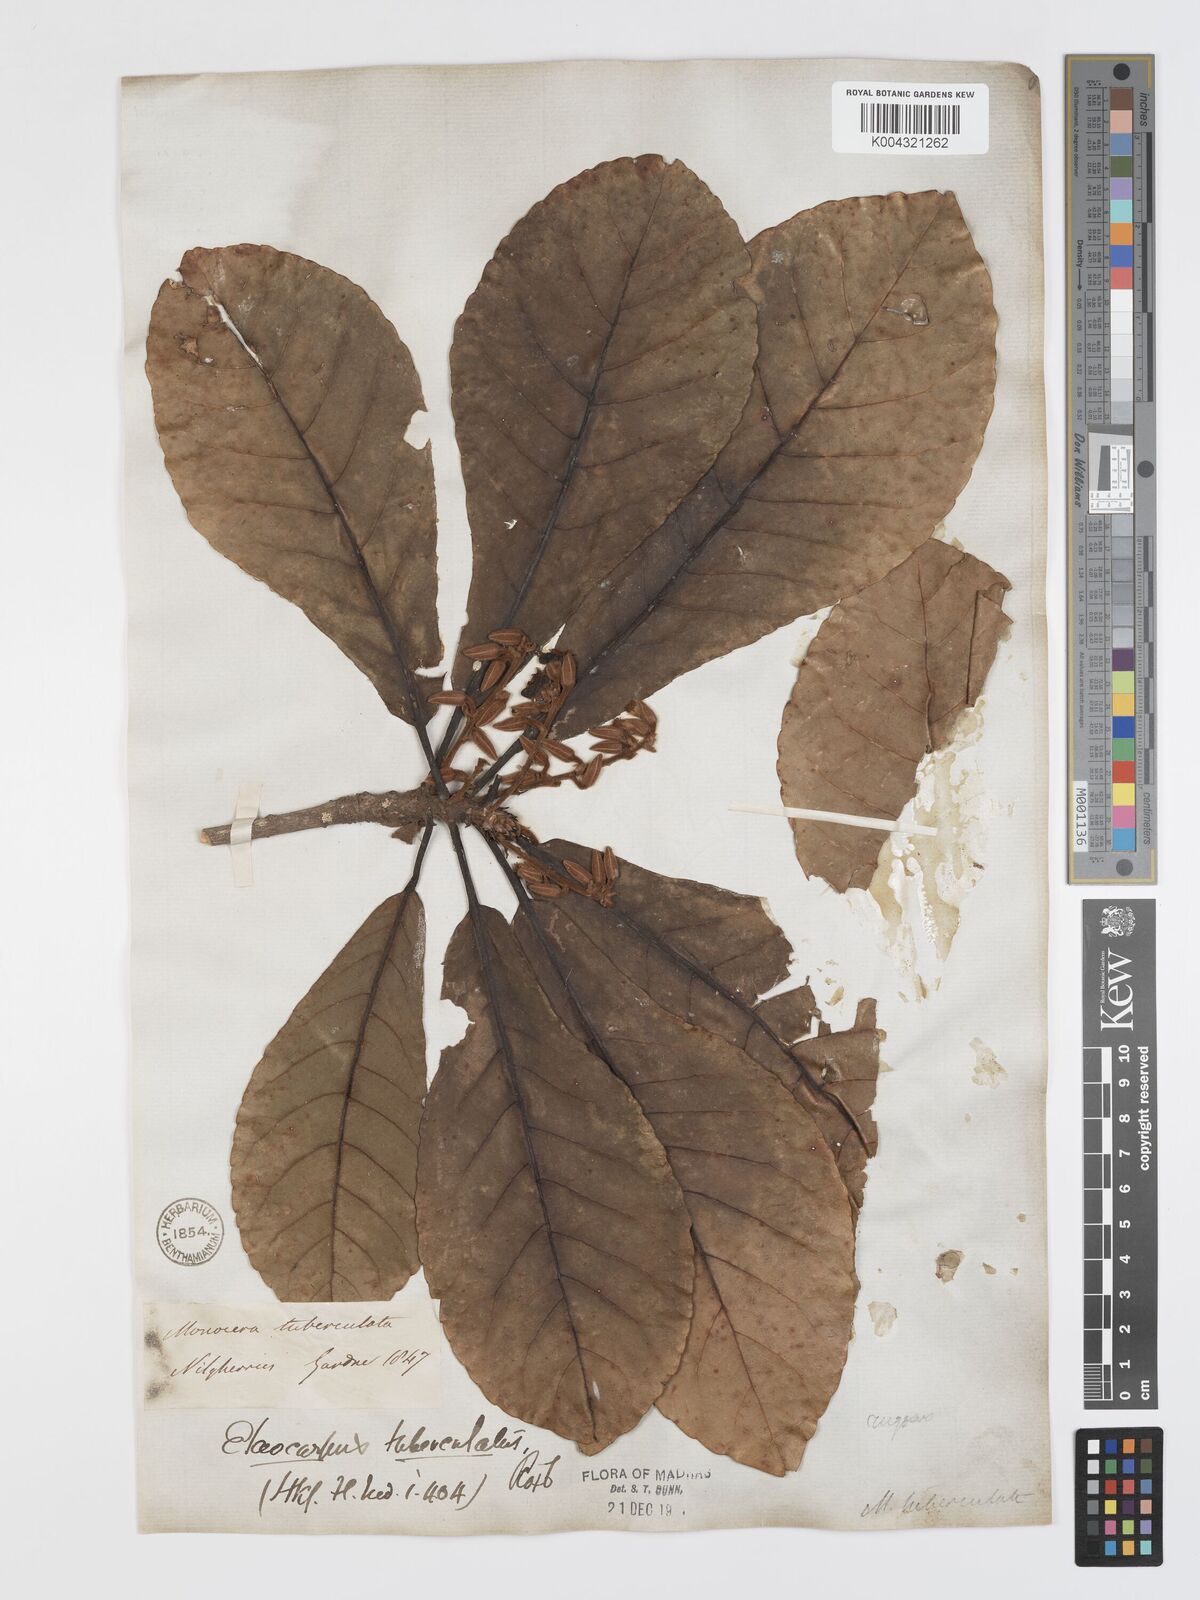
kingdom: Plantae
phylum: Tracheophyta
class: Magnoliopsida
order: Oxalidales
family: Elaeocarpaceae
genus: Elaeocarpus
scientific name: Elaeocarpus tuberculatus
